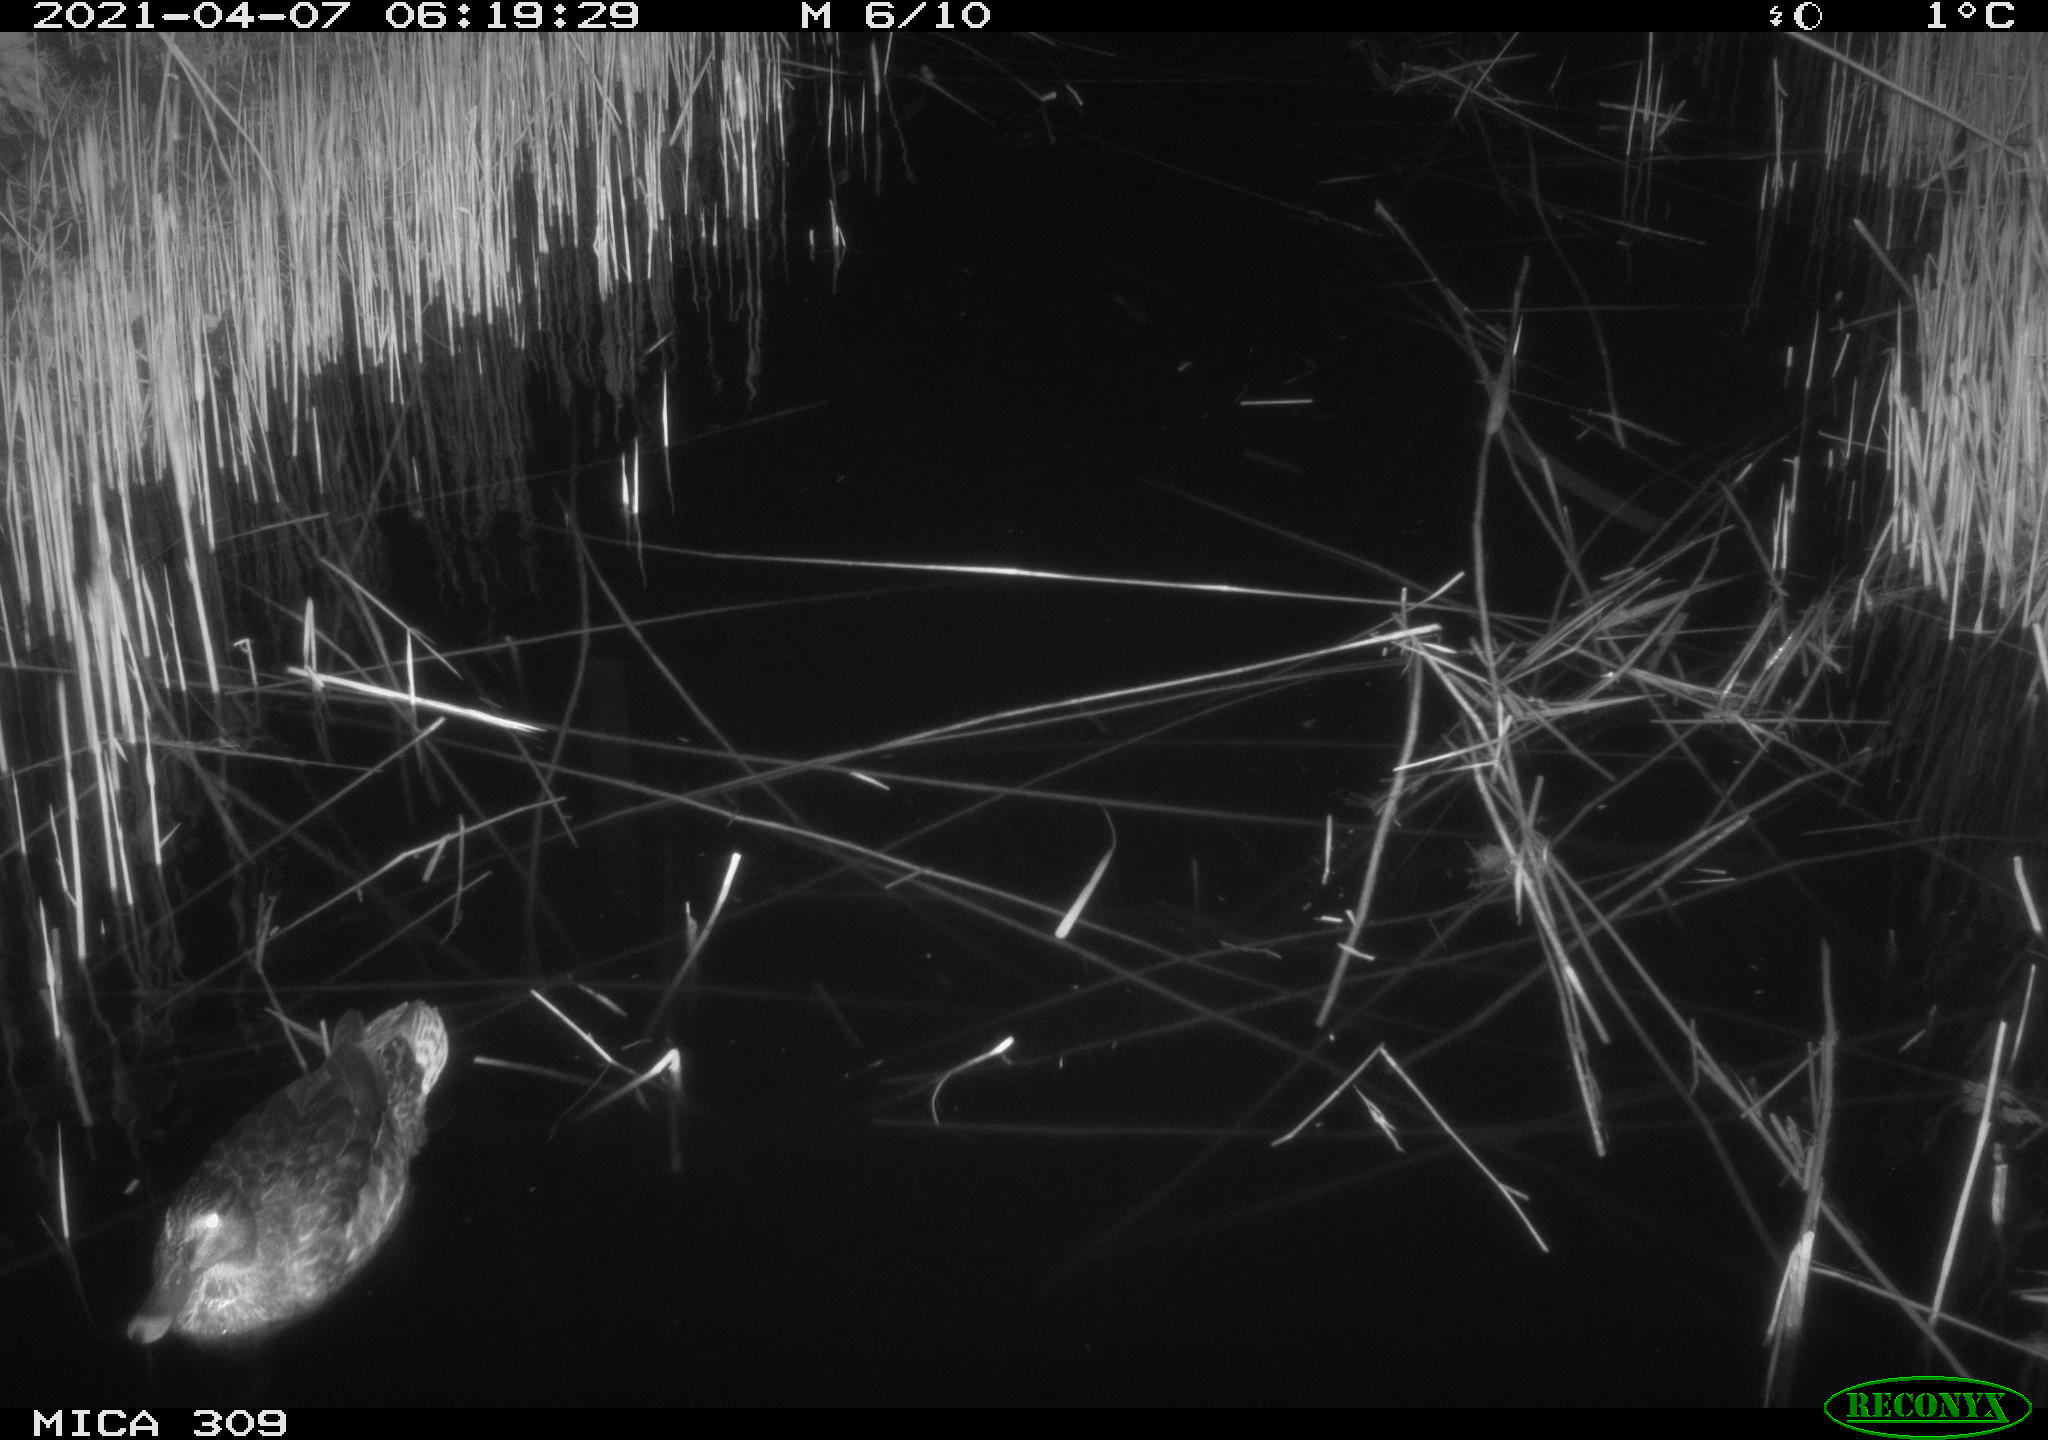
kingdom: Animalia
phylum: Chordata
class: Aves
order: Anseriformes
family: Anatidae
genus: Anas
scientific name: Anas platyrhynchos
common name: Mallard
